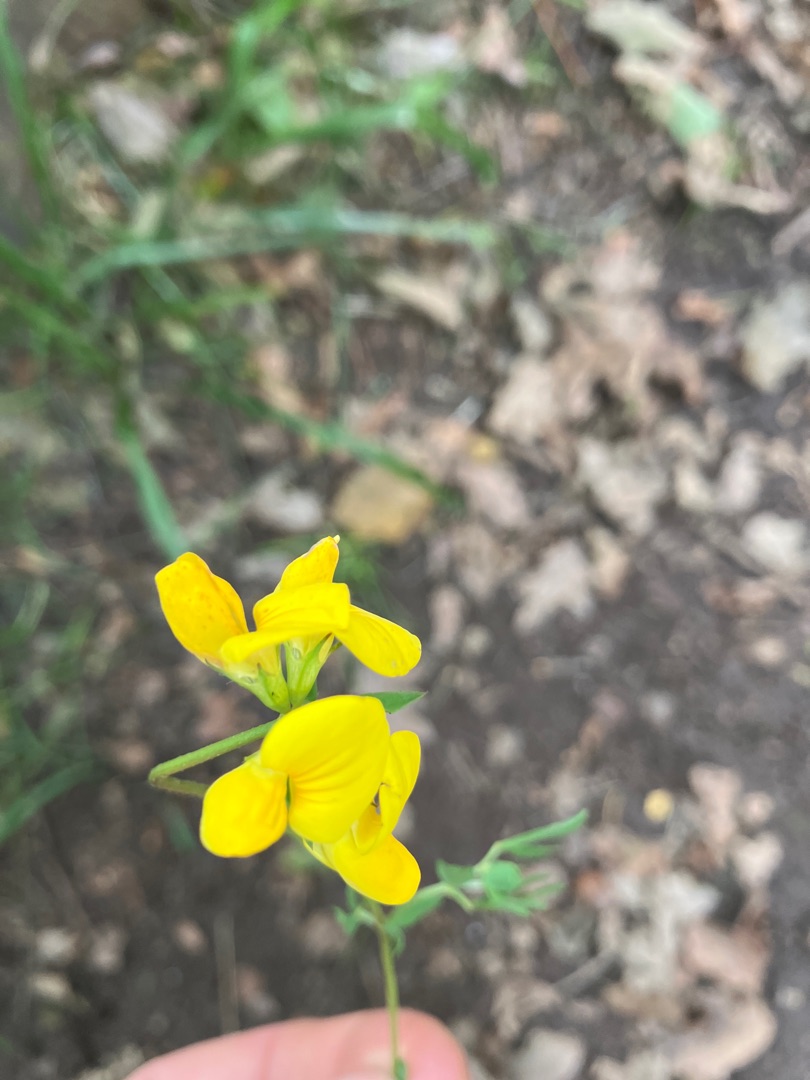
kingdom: Plantae
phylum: Tracheophyta
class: Magnoliopsida
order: Fabales
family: Fabaceae
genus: Lotus
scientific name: Lotus corniculatus
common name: Almindelig kællingetand
